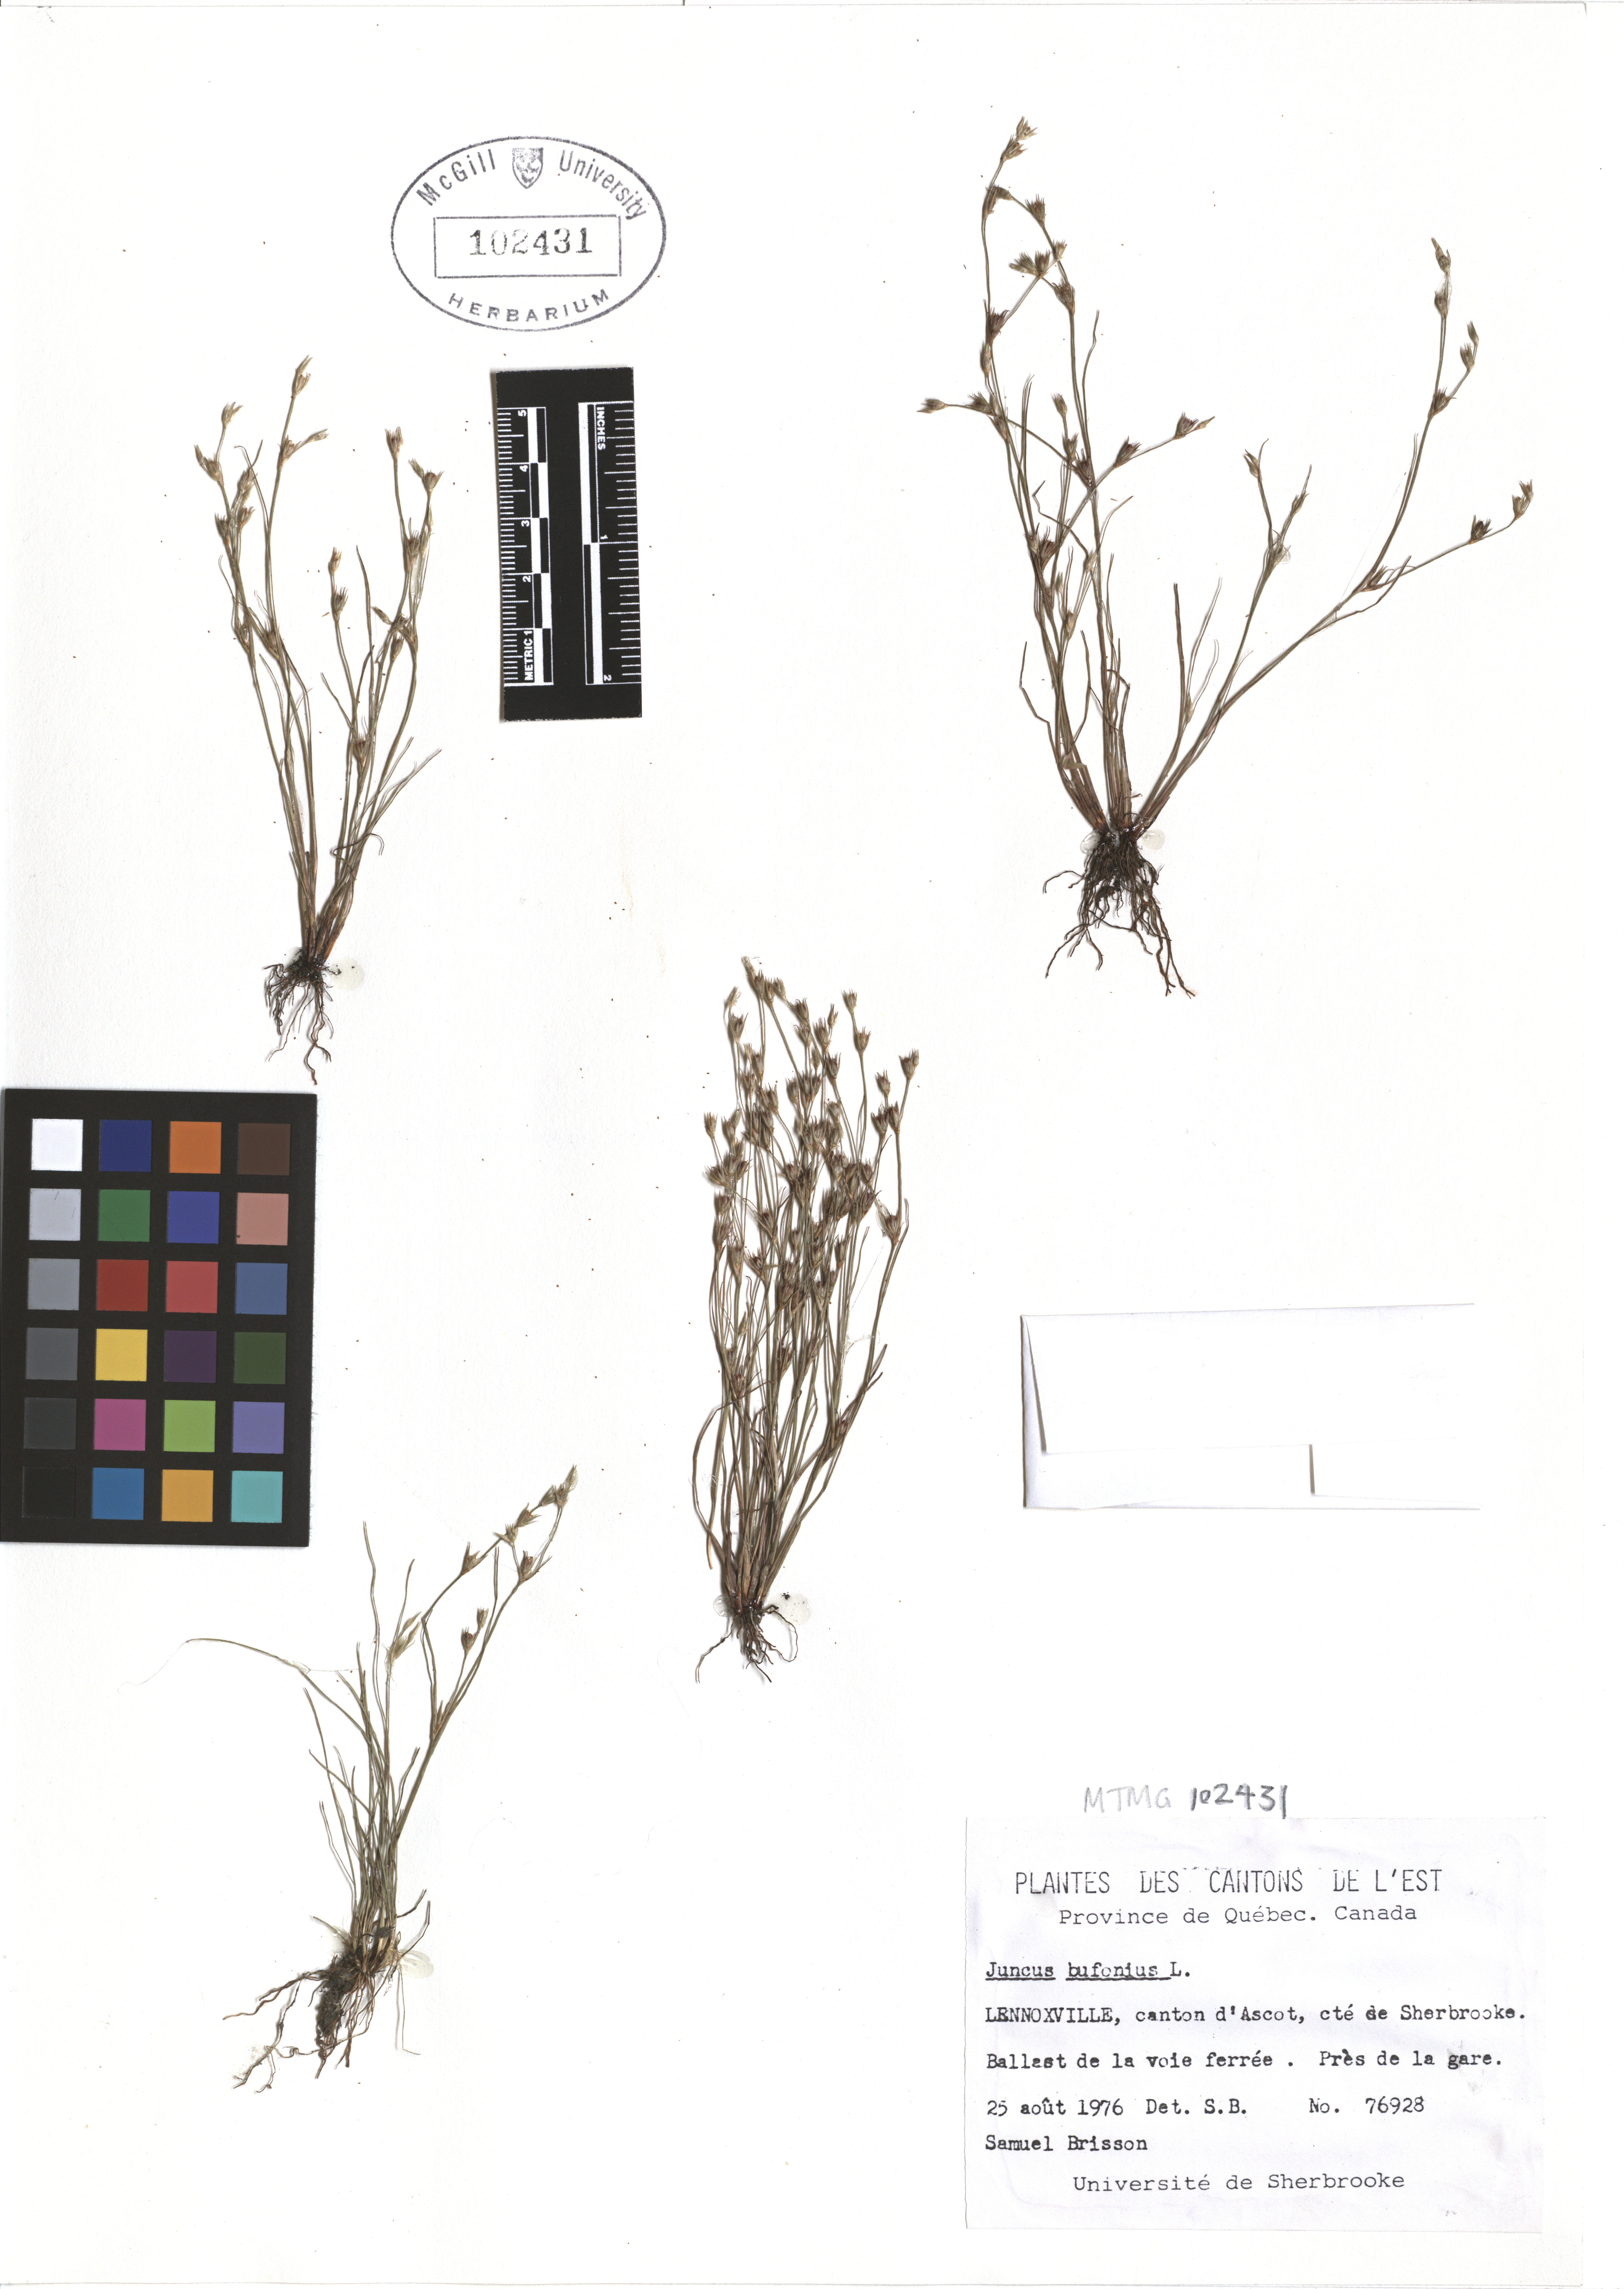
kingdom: Plantae
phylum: Tracheophyta
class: Liliopsida
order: Poales
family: Juncaceae
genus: Juncus
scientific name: Juncus bufonius
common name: Toad rush
